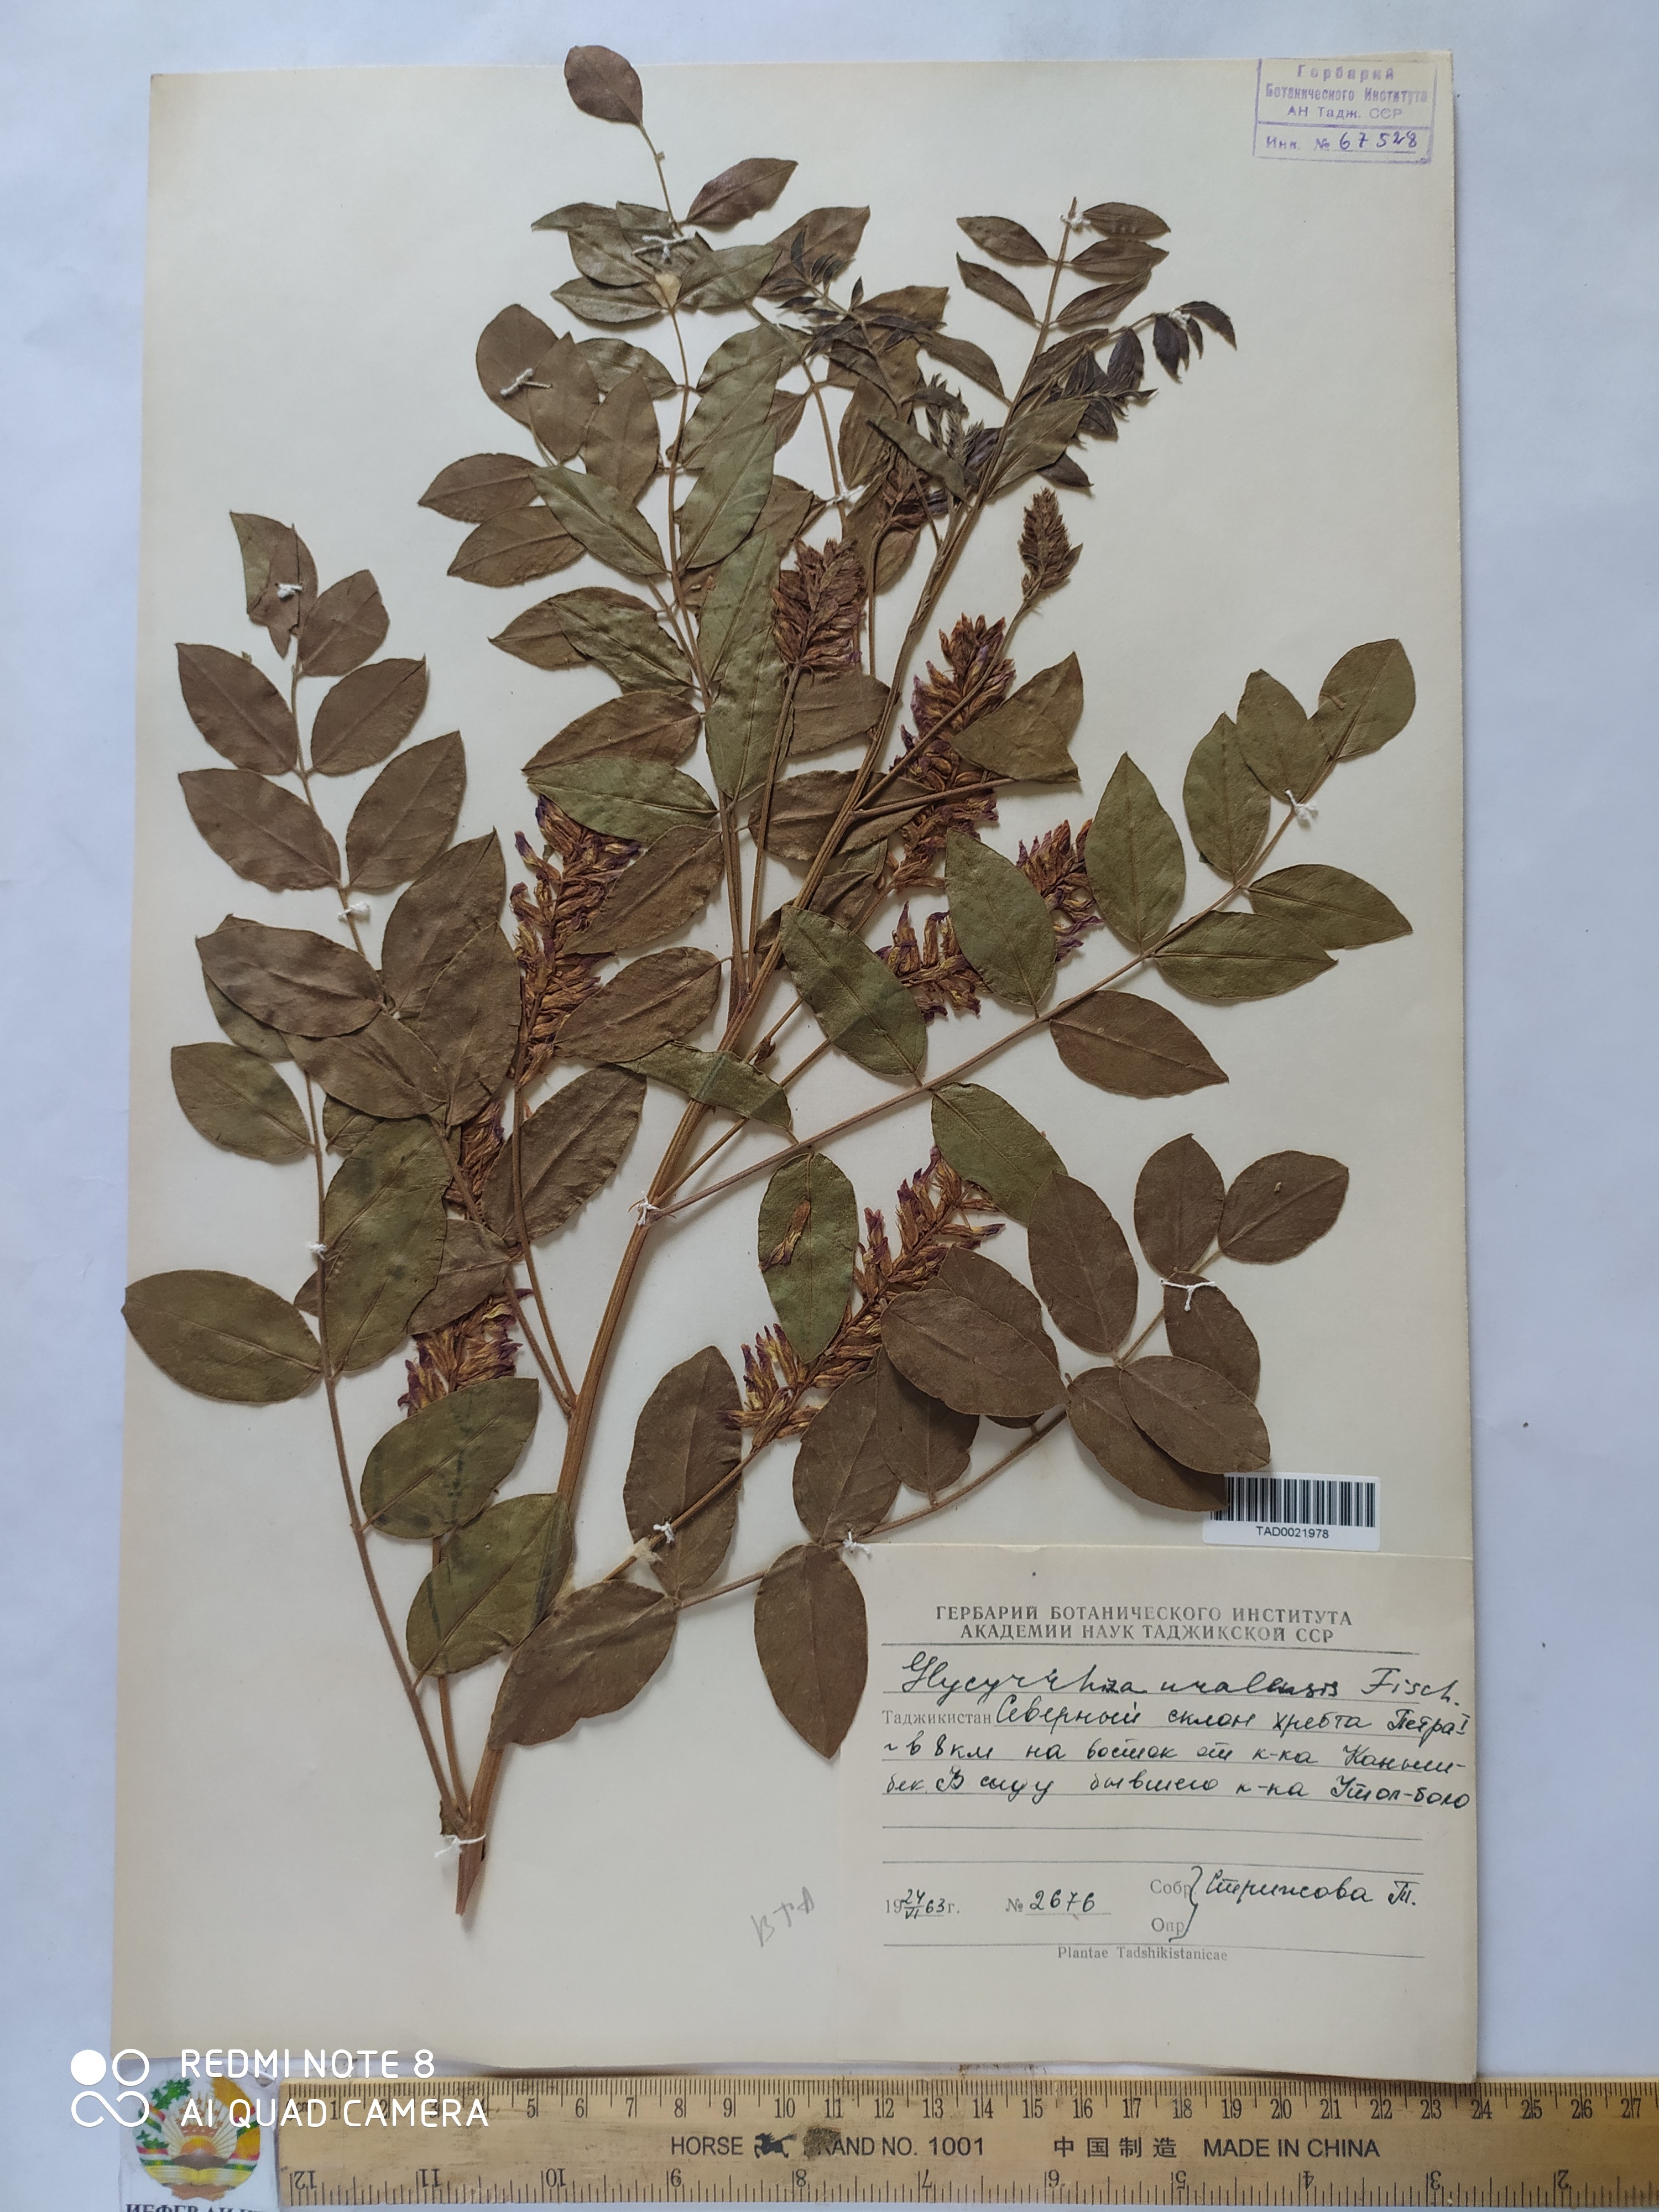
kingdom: Plantae
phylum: Tracheophyta
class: Magnoliopsida
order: Fabales
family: Fabaceae
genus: Glycyrrhiza
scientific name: Glycyrrhiza uralensis
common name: Chinese licorice
